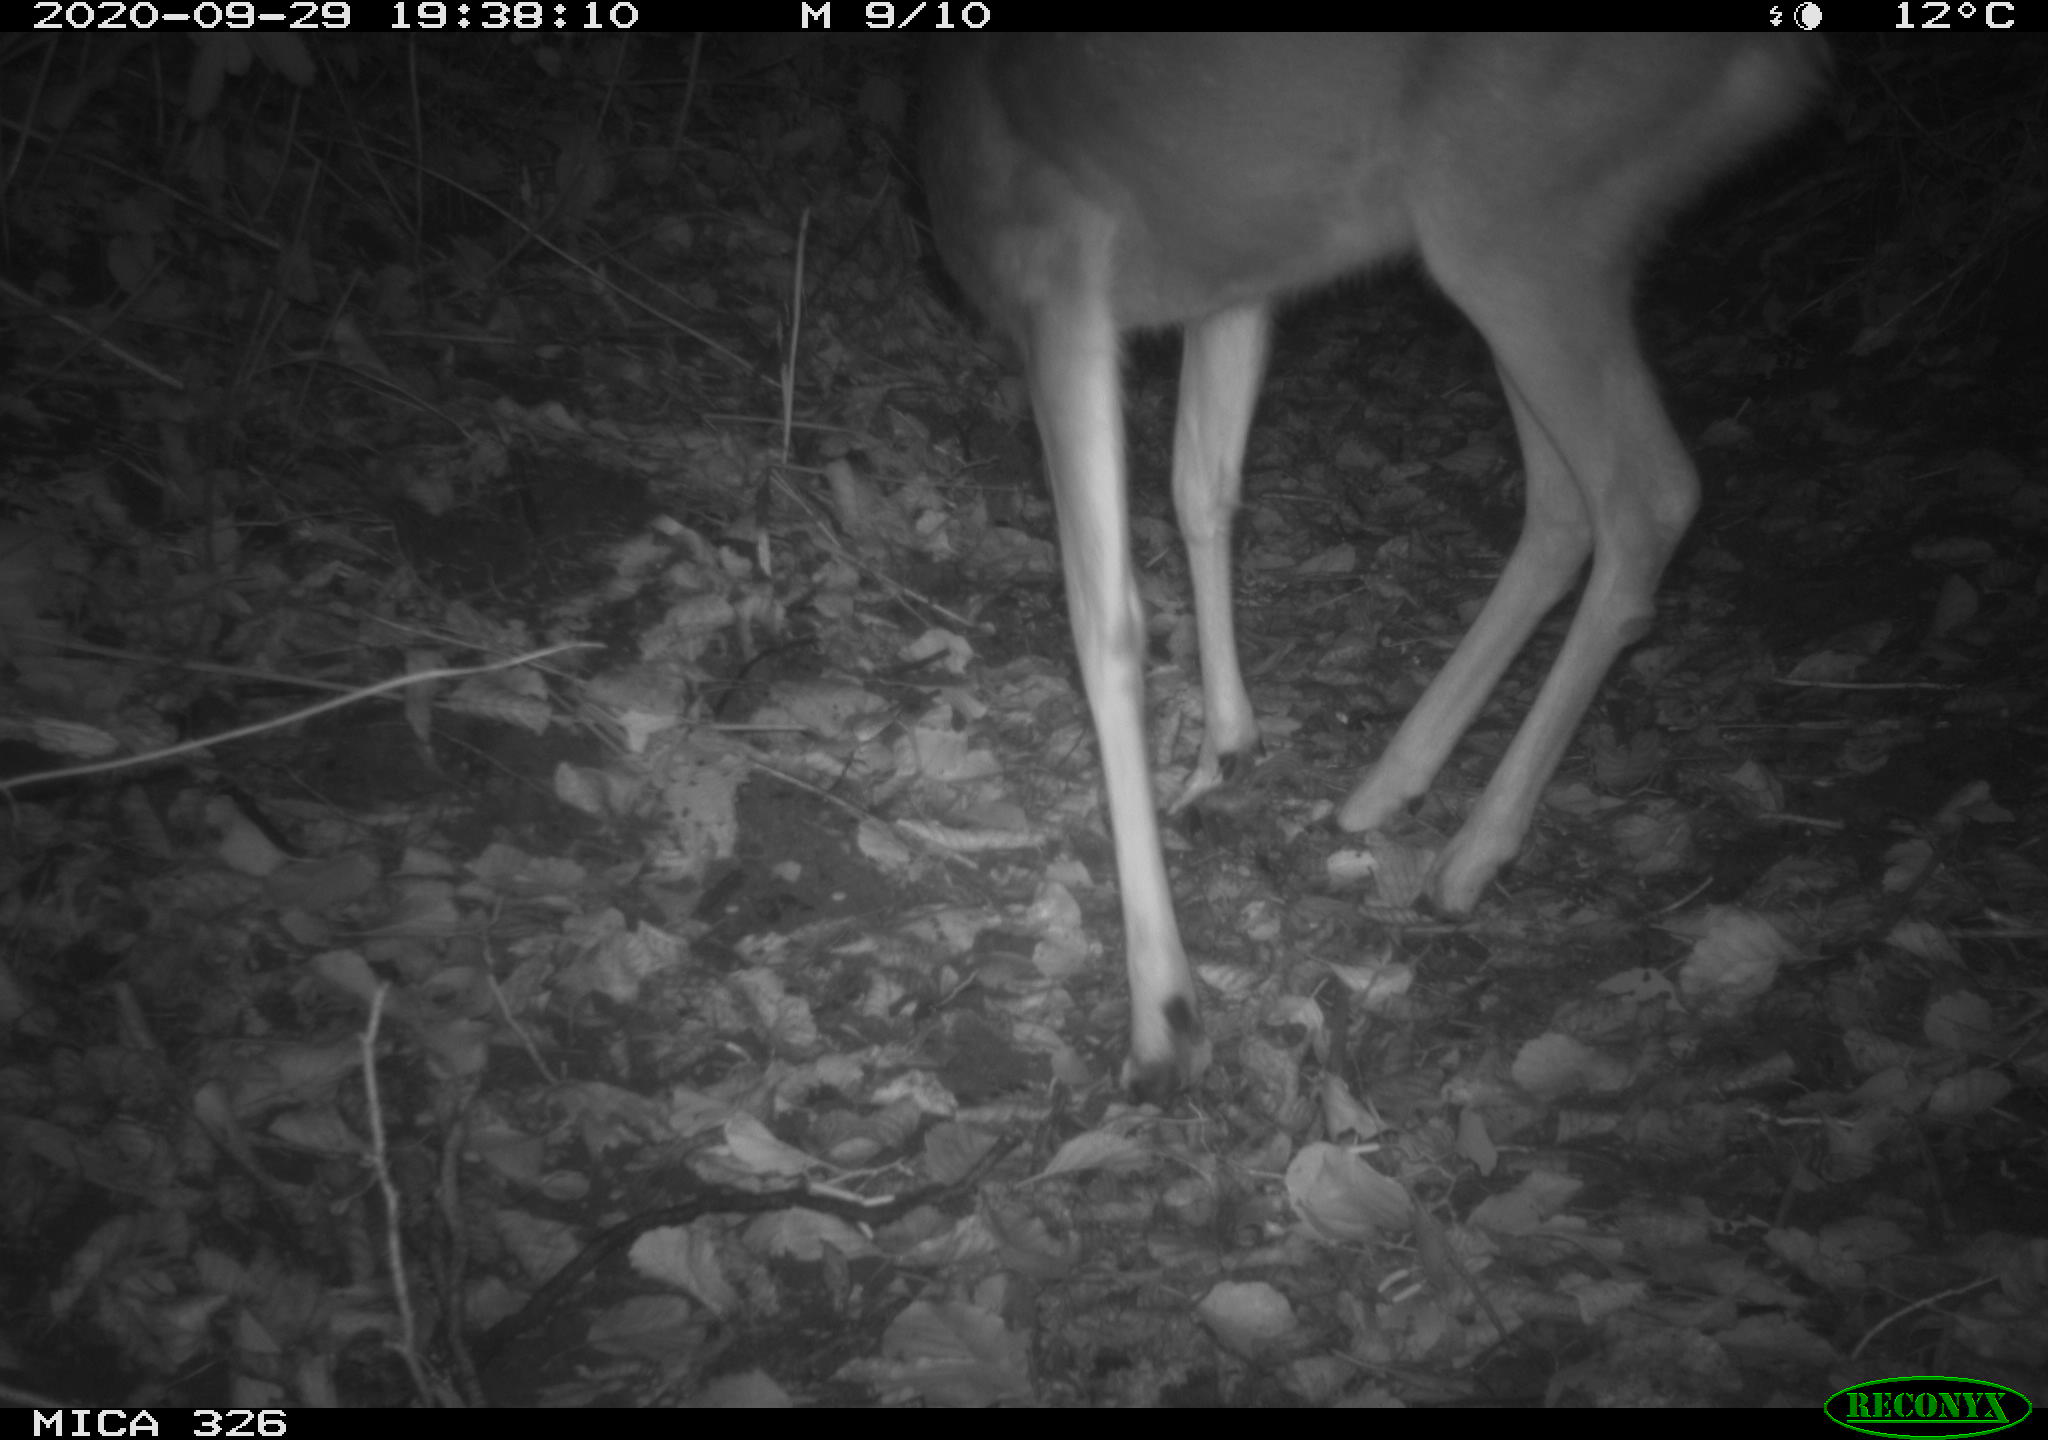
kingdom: Animalia
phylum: Chordata
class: Mammalia
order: Artiodactyla
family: Cervidae
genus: Capreolus
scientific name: Capreolus capreolus
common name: Western roe deer
